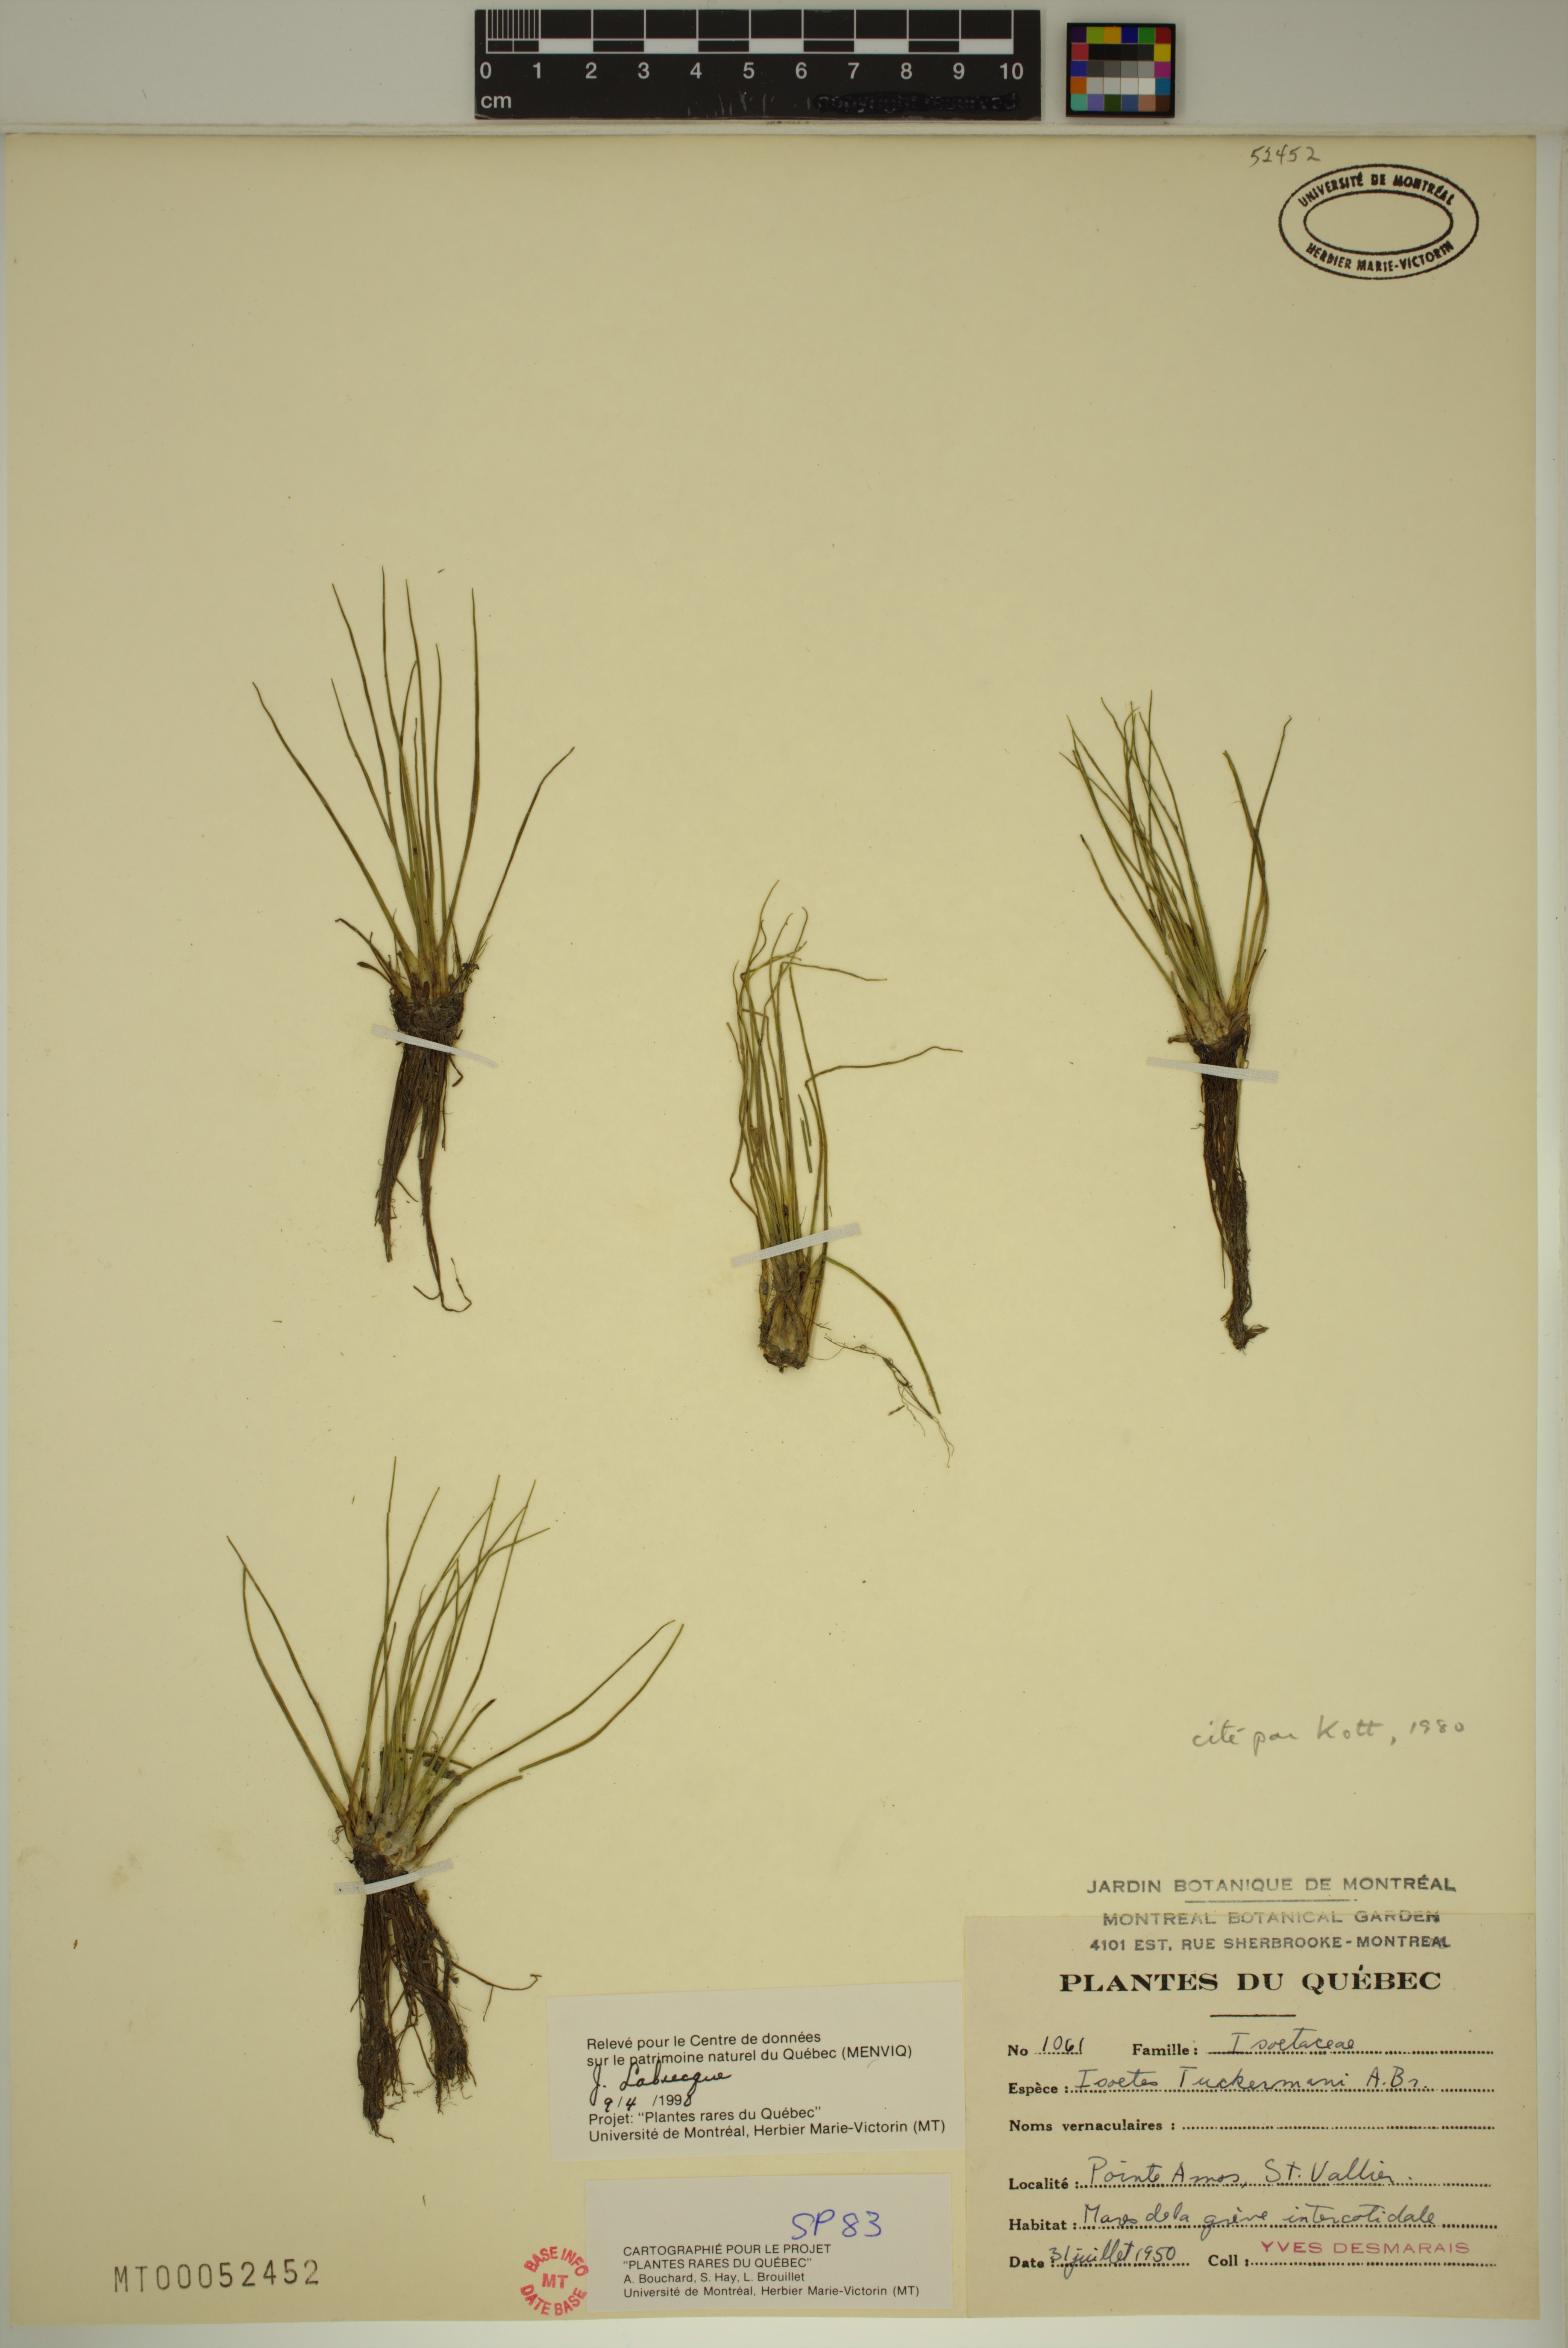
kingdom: Plantae
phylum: Tracheophyta
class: Lycopodiopsida
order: Isoetales
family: Isoetaceae
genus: Isoetes
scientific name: Isoetes laurentiana
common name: St. lawrence quillwort
